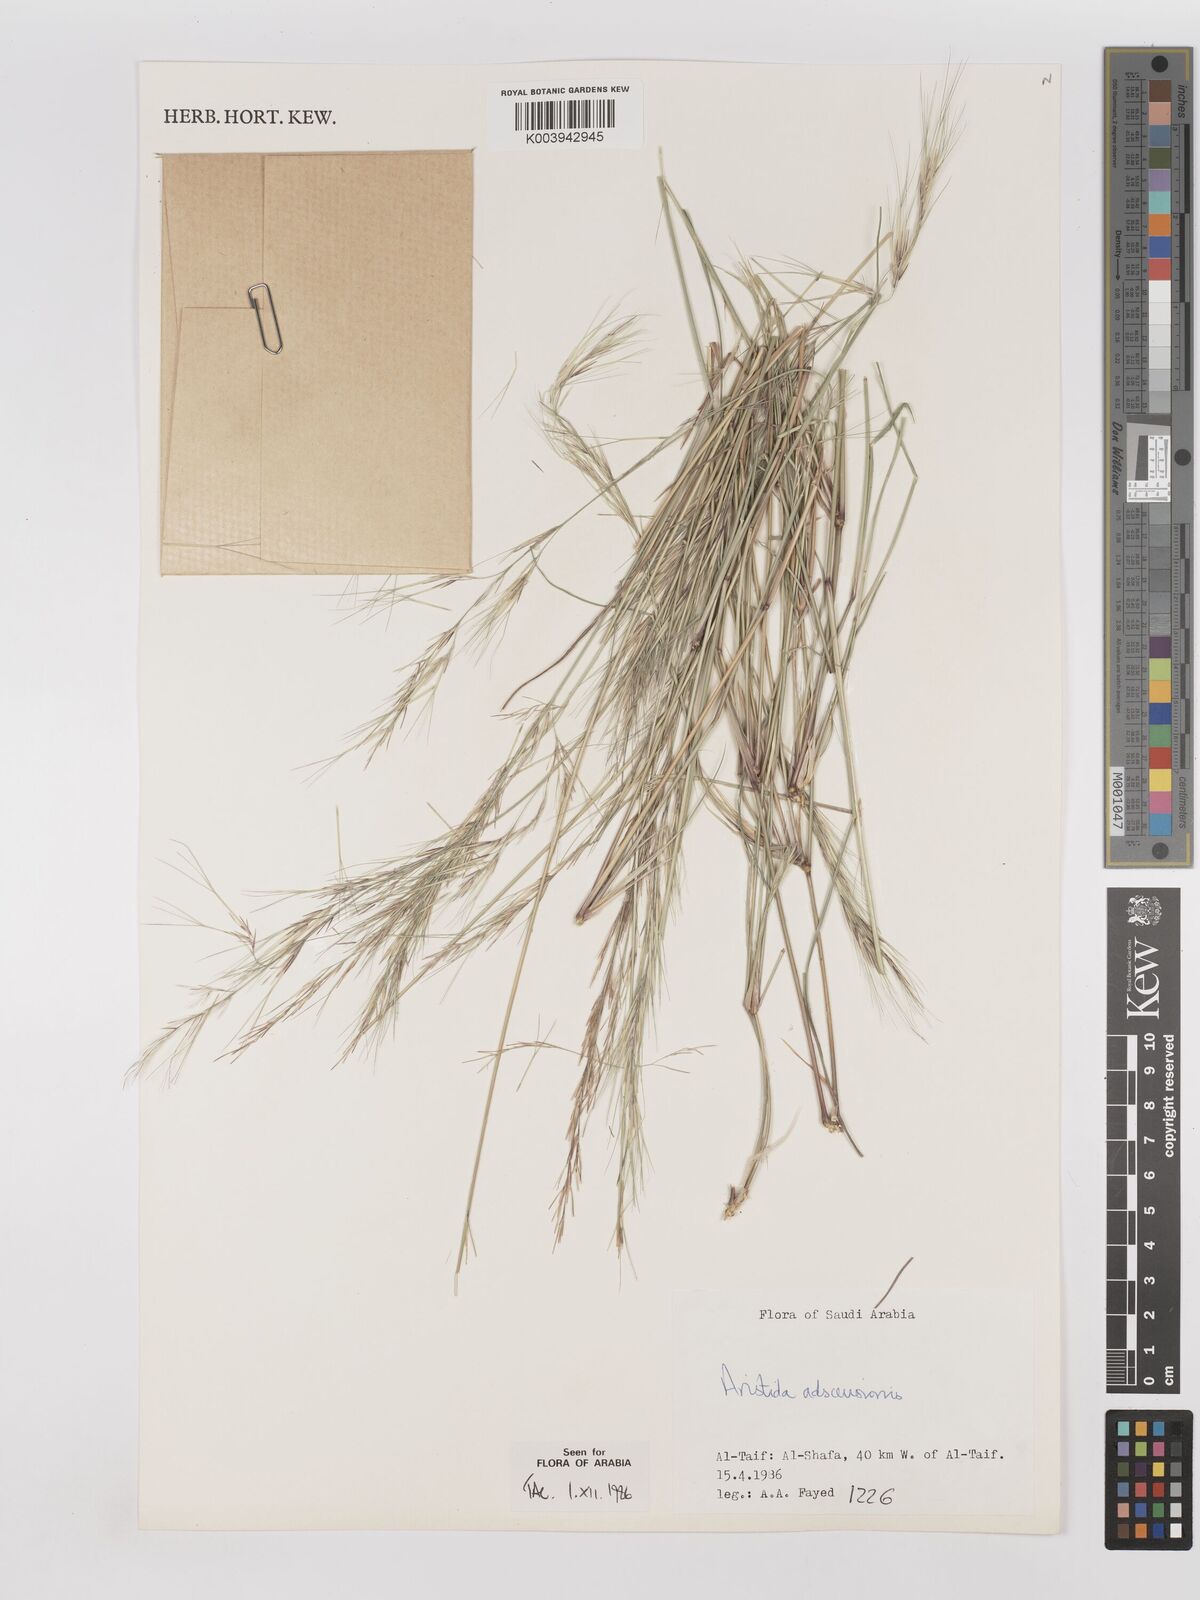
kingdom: Plantae
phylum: Tracheophyta
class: Liliopsida
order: Poales
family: Poaceae
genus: Aristida
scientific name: Aristida adscensionis
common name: Sixweeks threeawn
